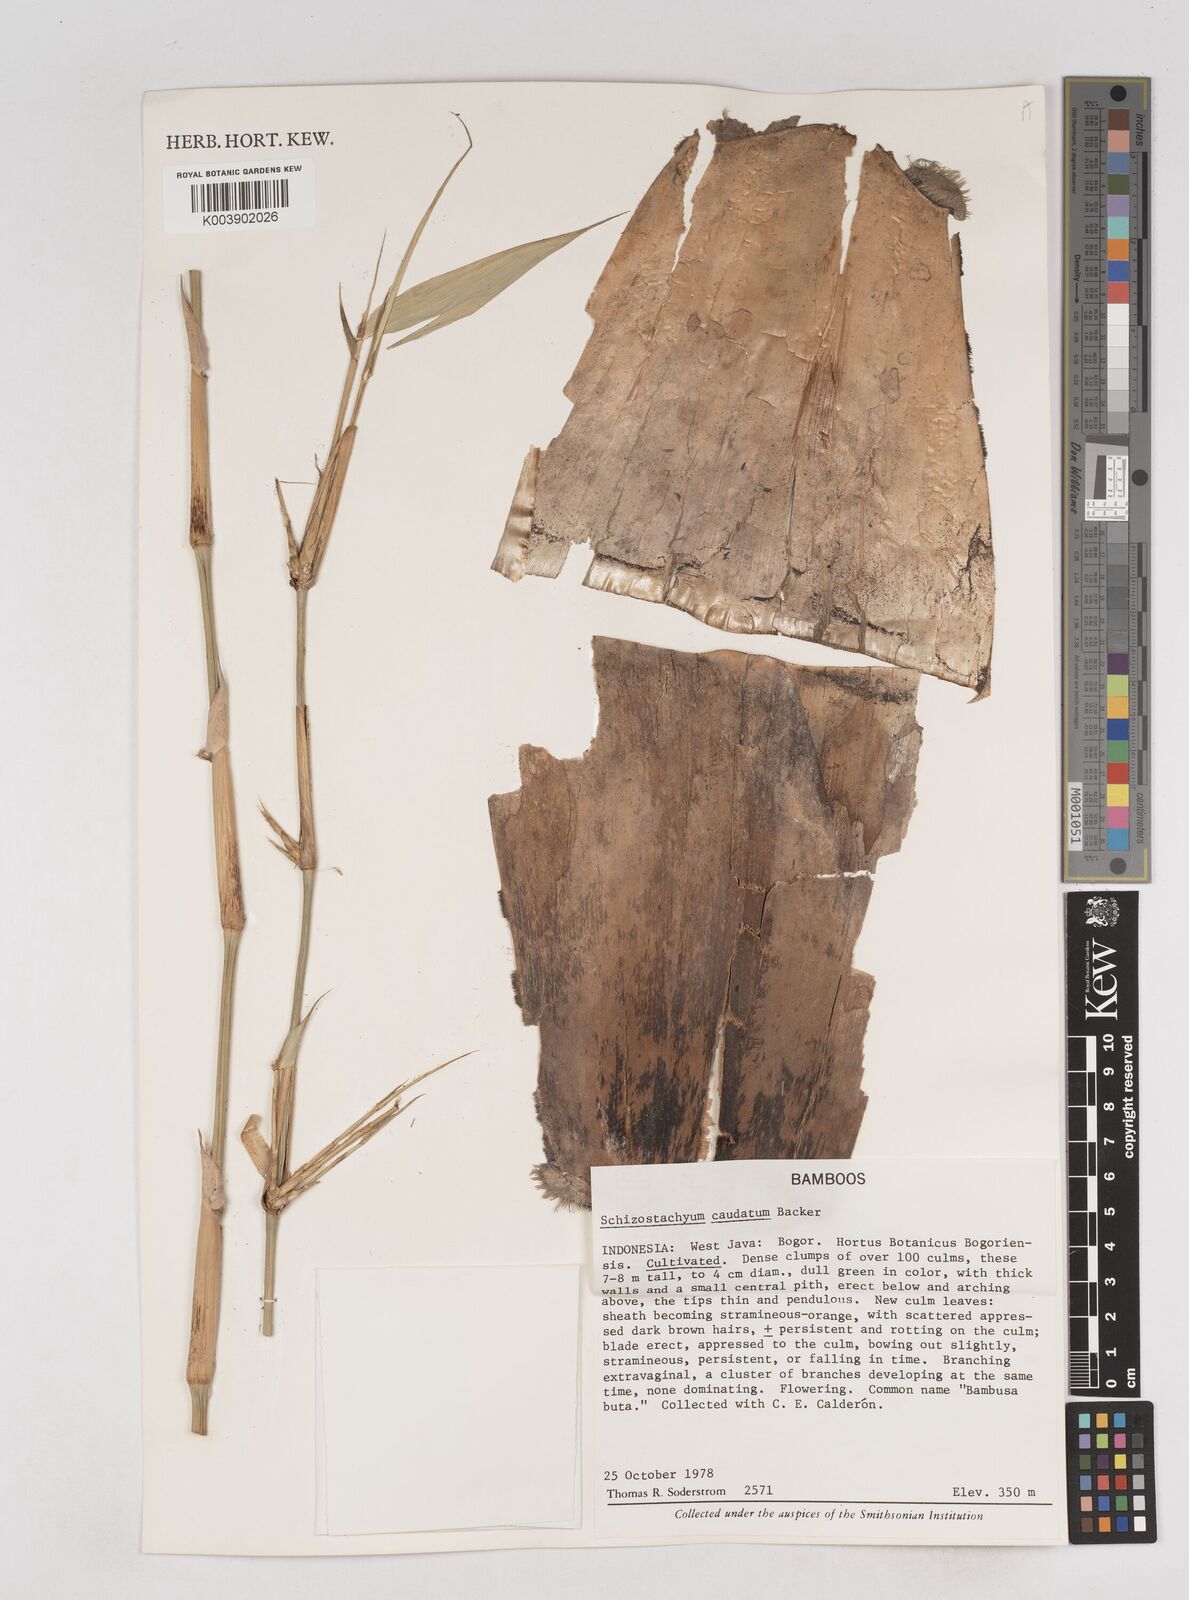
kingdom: Plantae
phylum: Tracheophyta
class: Liliopsida
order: Poales
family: Poaceae
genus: Schizostachyum
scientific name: Schizostachyum caudatum
